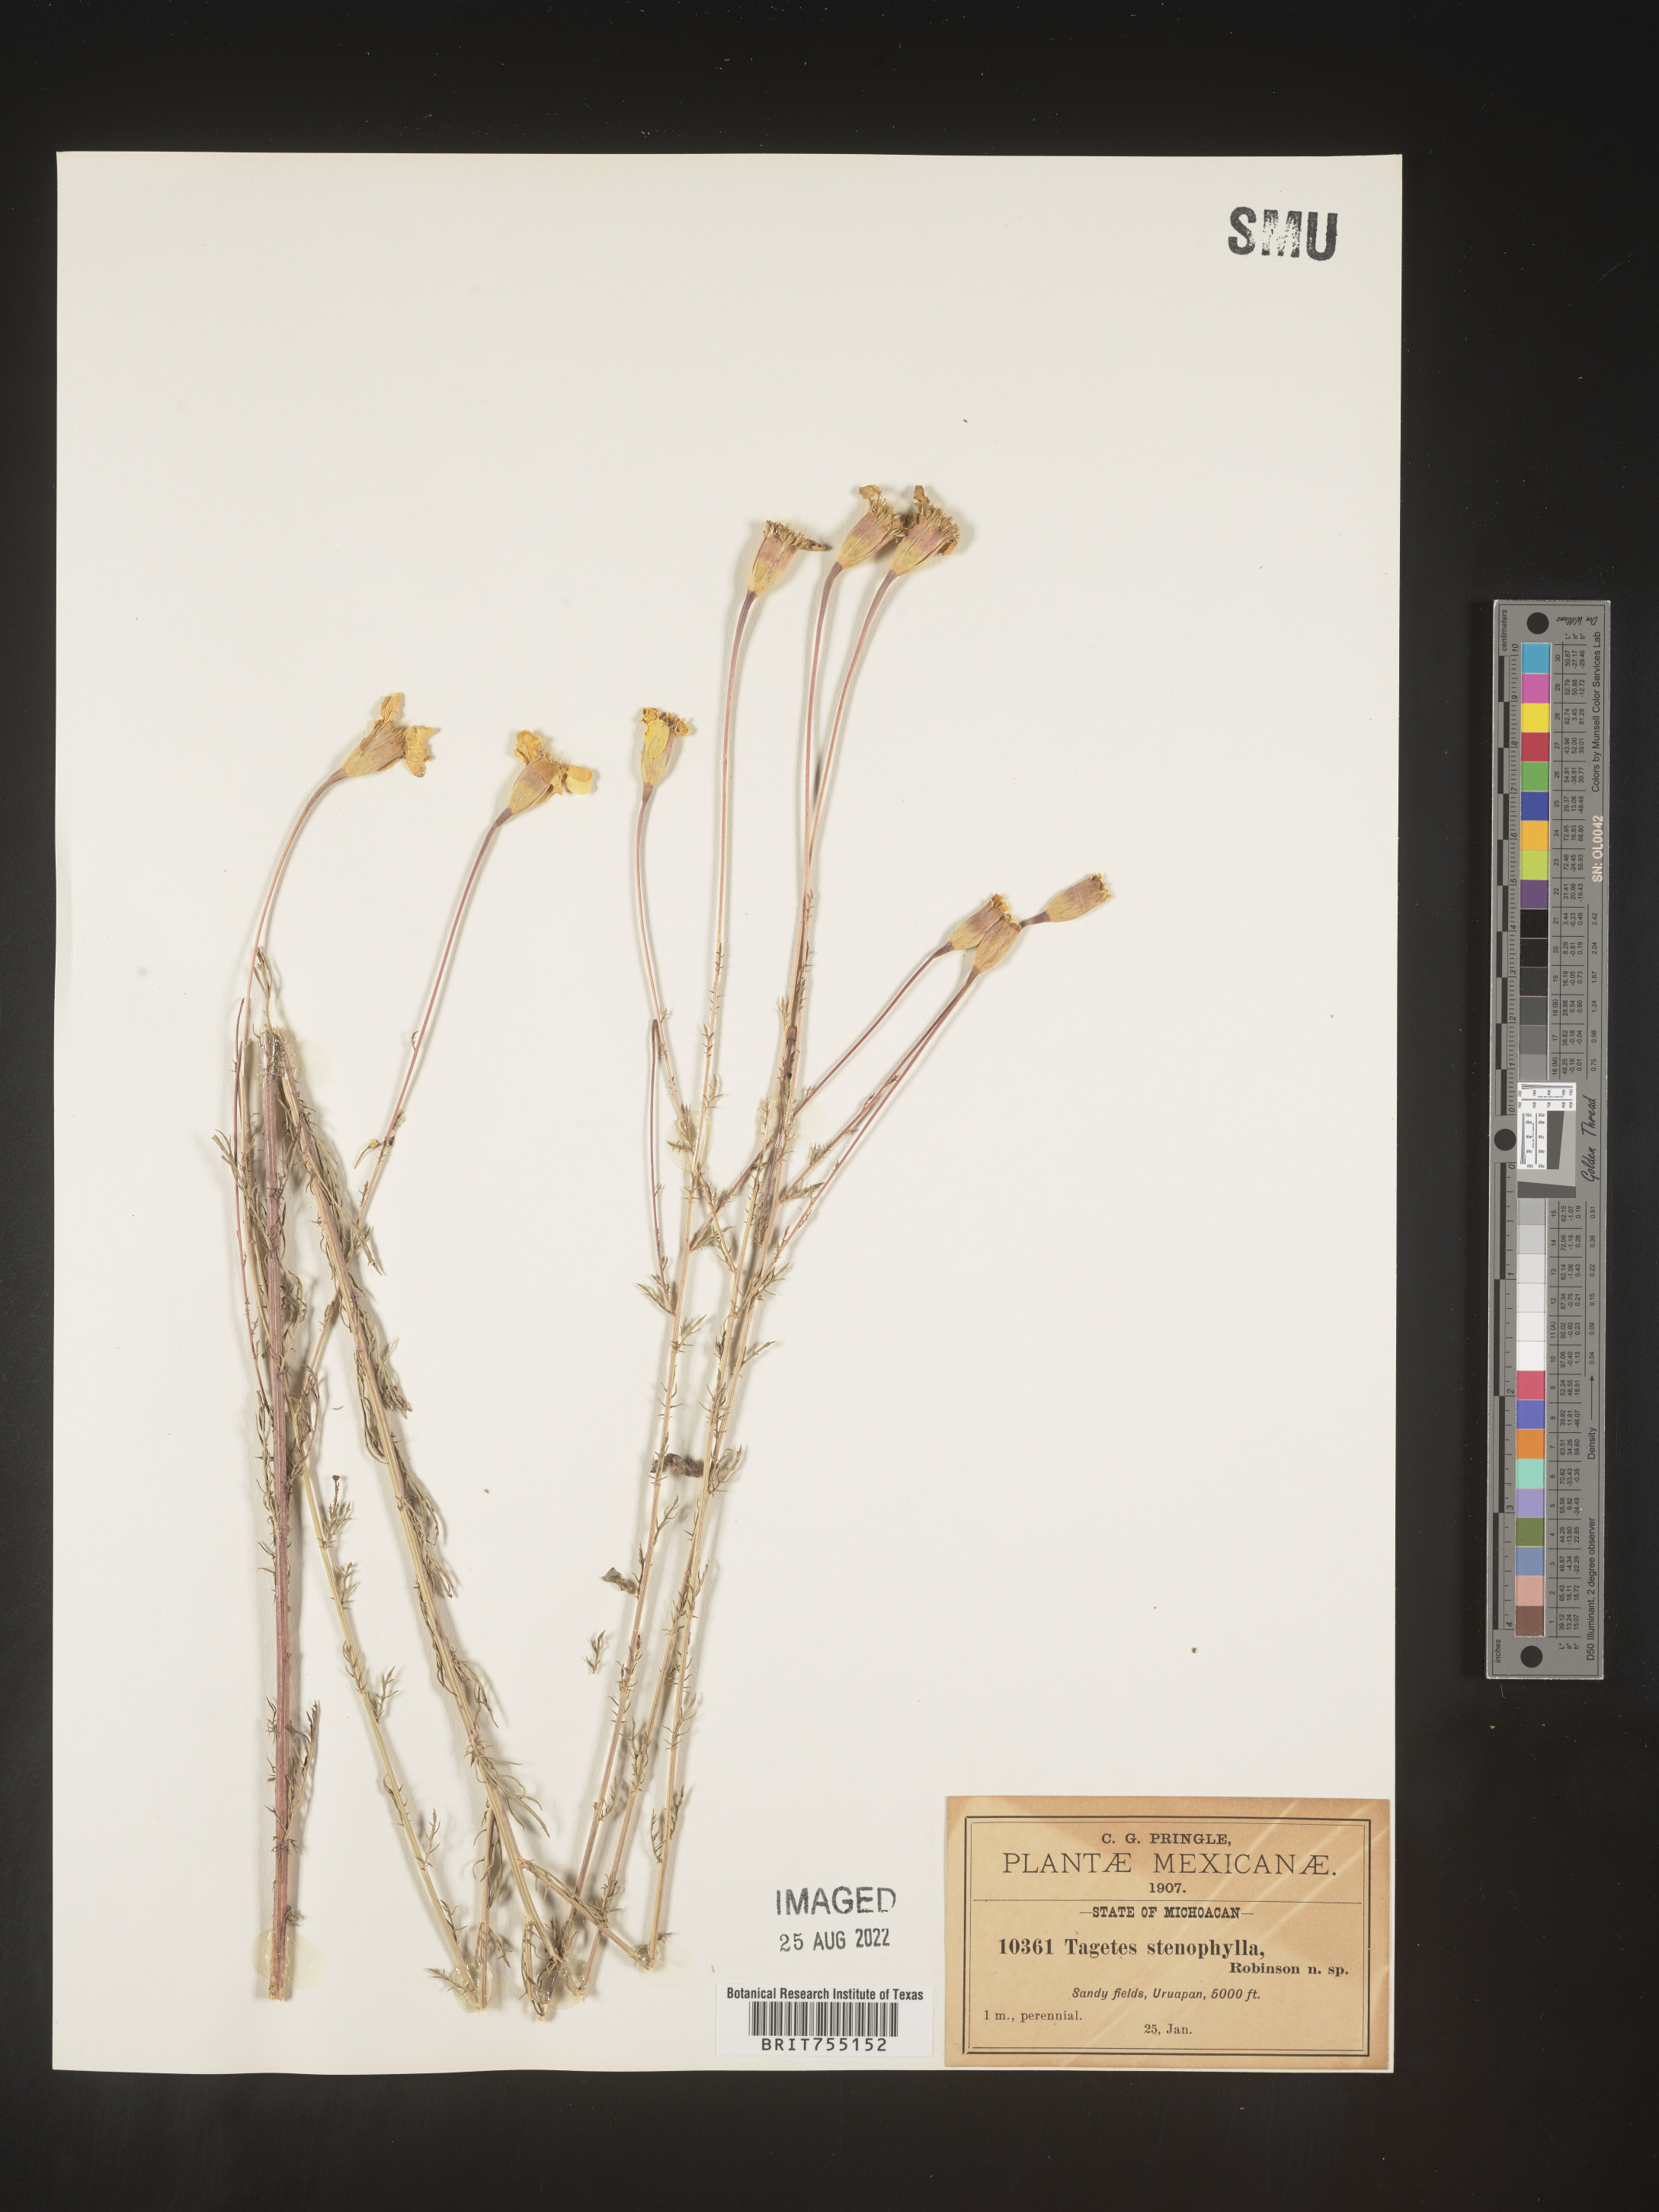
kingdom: Plantae
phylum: Tracheophyta
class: Magnoliopsida
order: Asterales
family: Asteraceae
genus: Tagetes
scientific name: Tagetes
